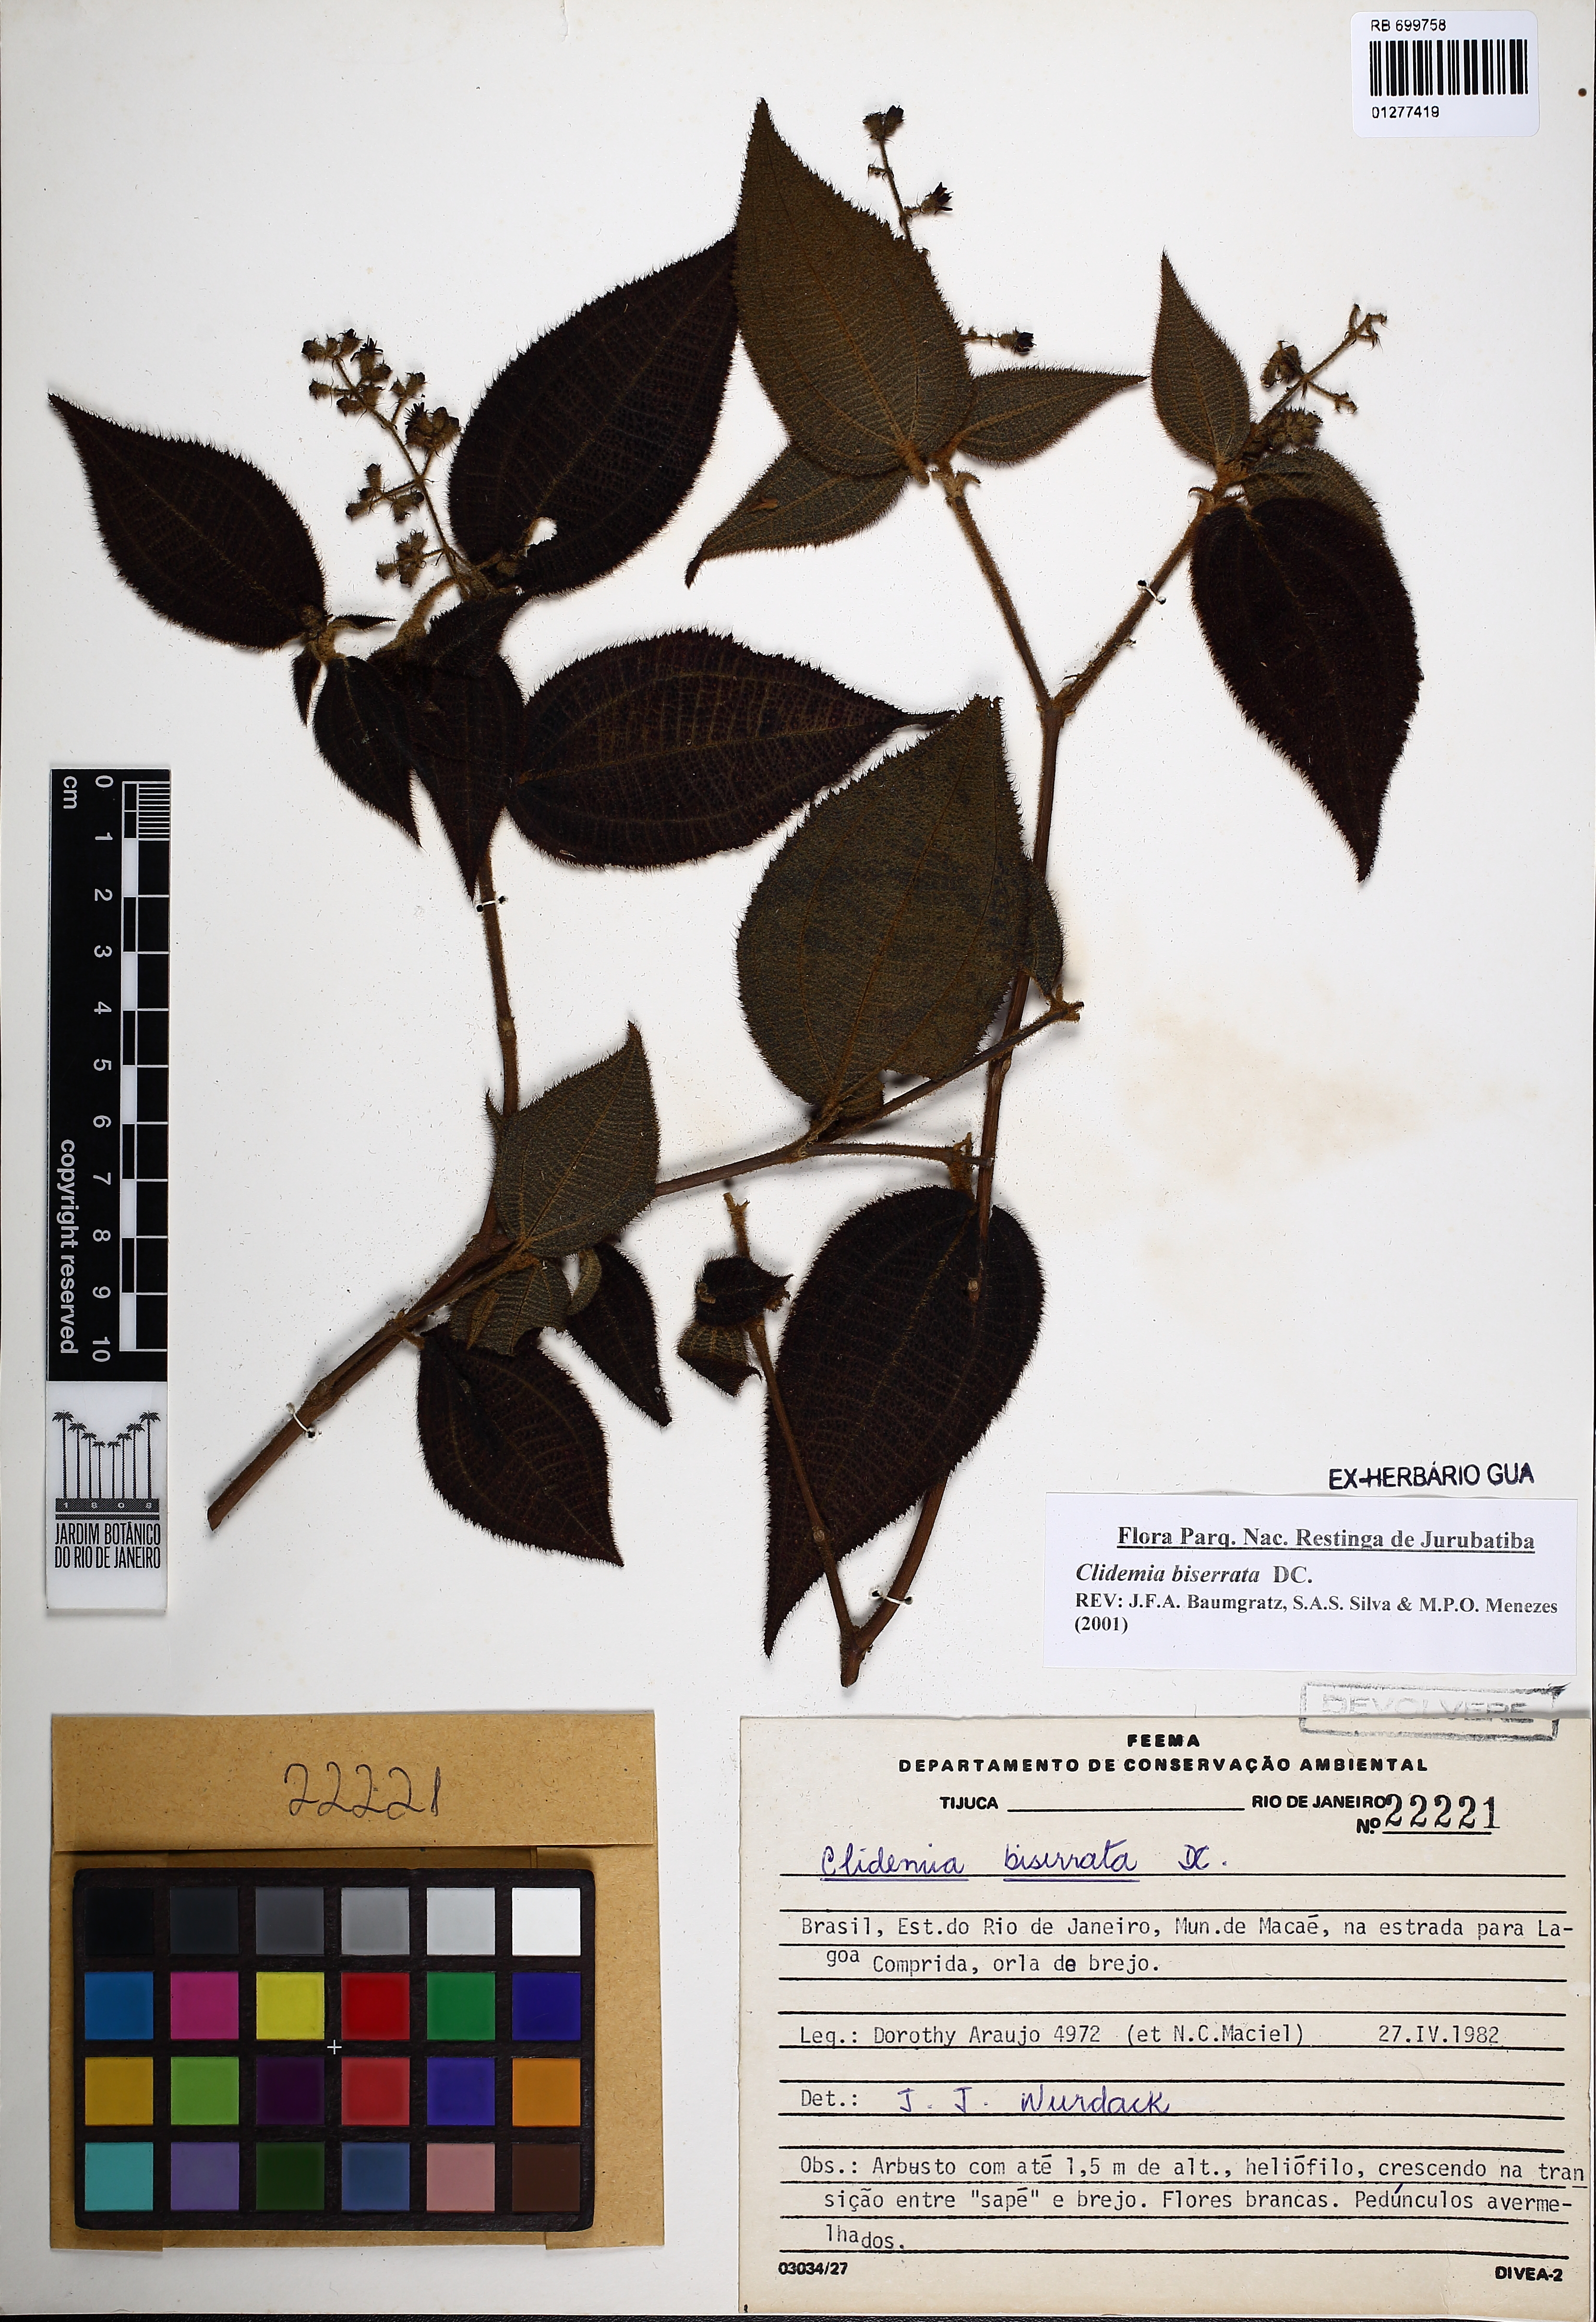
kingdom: Plantae
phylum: Tracheophyta
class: Magnoliopsida
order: Myrtales
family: Melastomataceae
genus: Miconia
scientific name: Miconia biserrata
